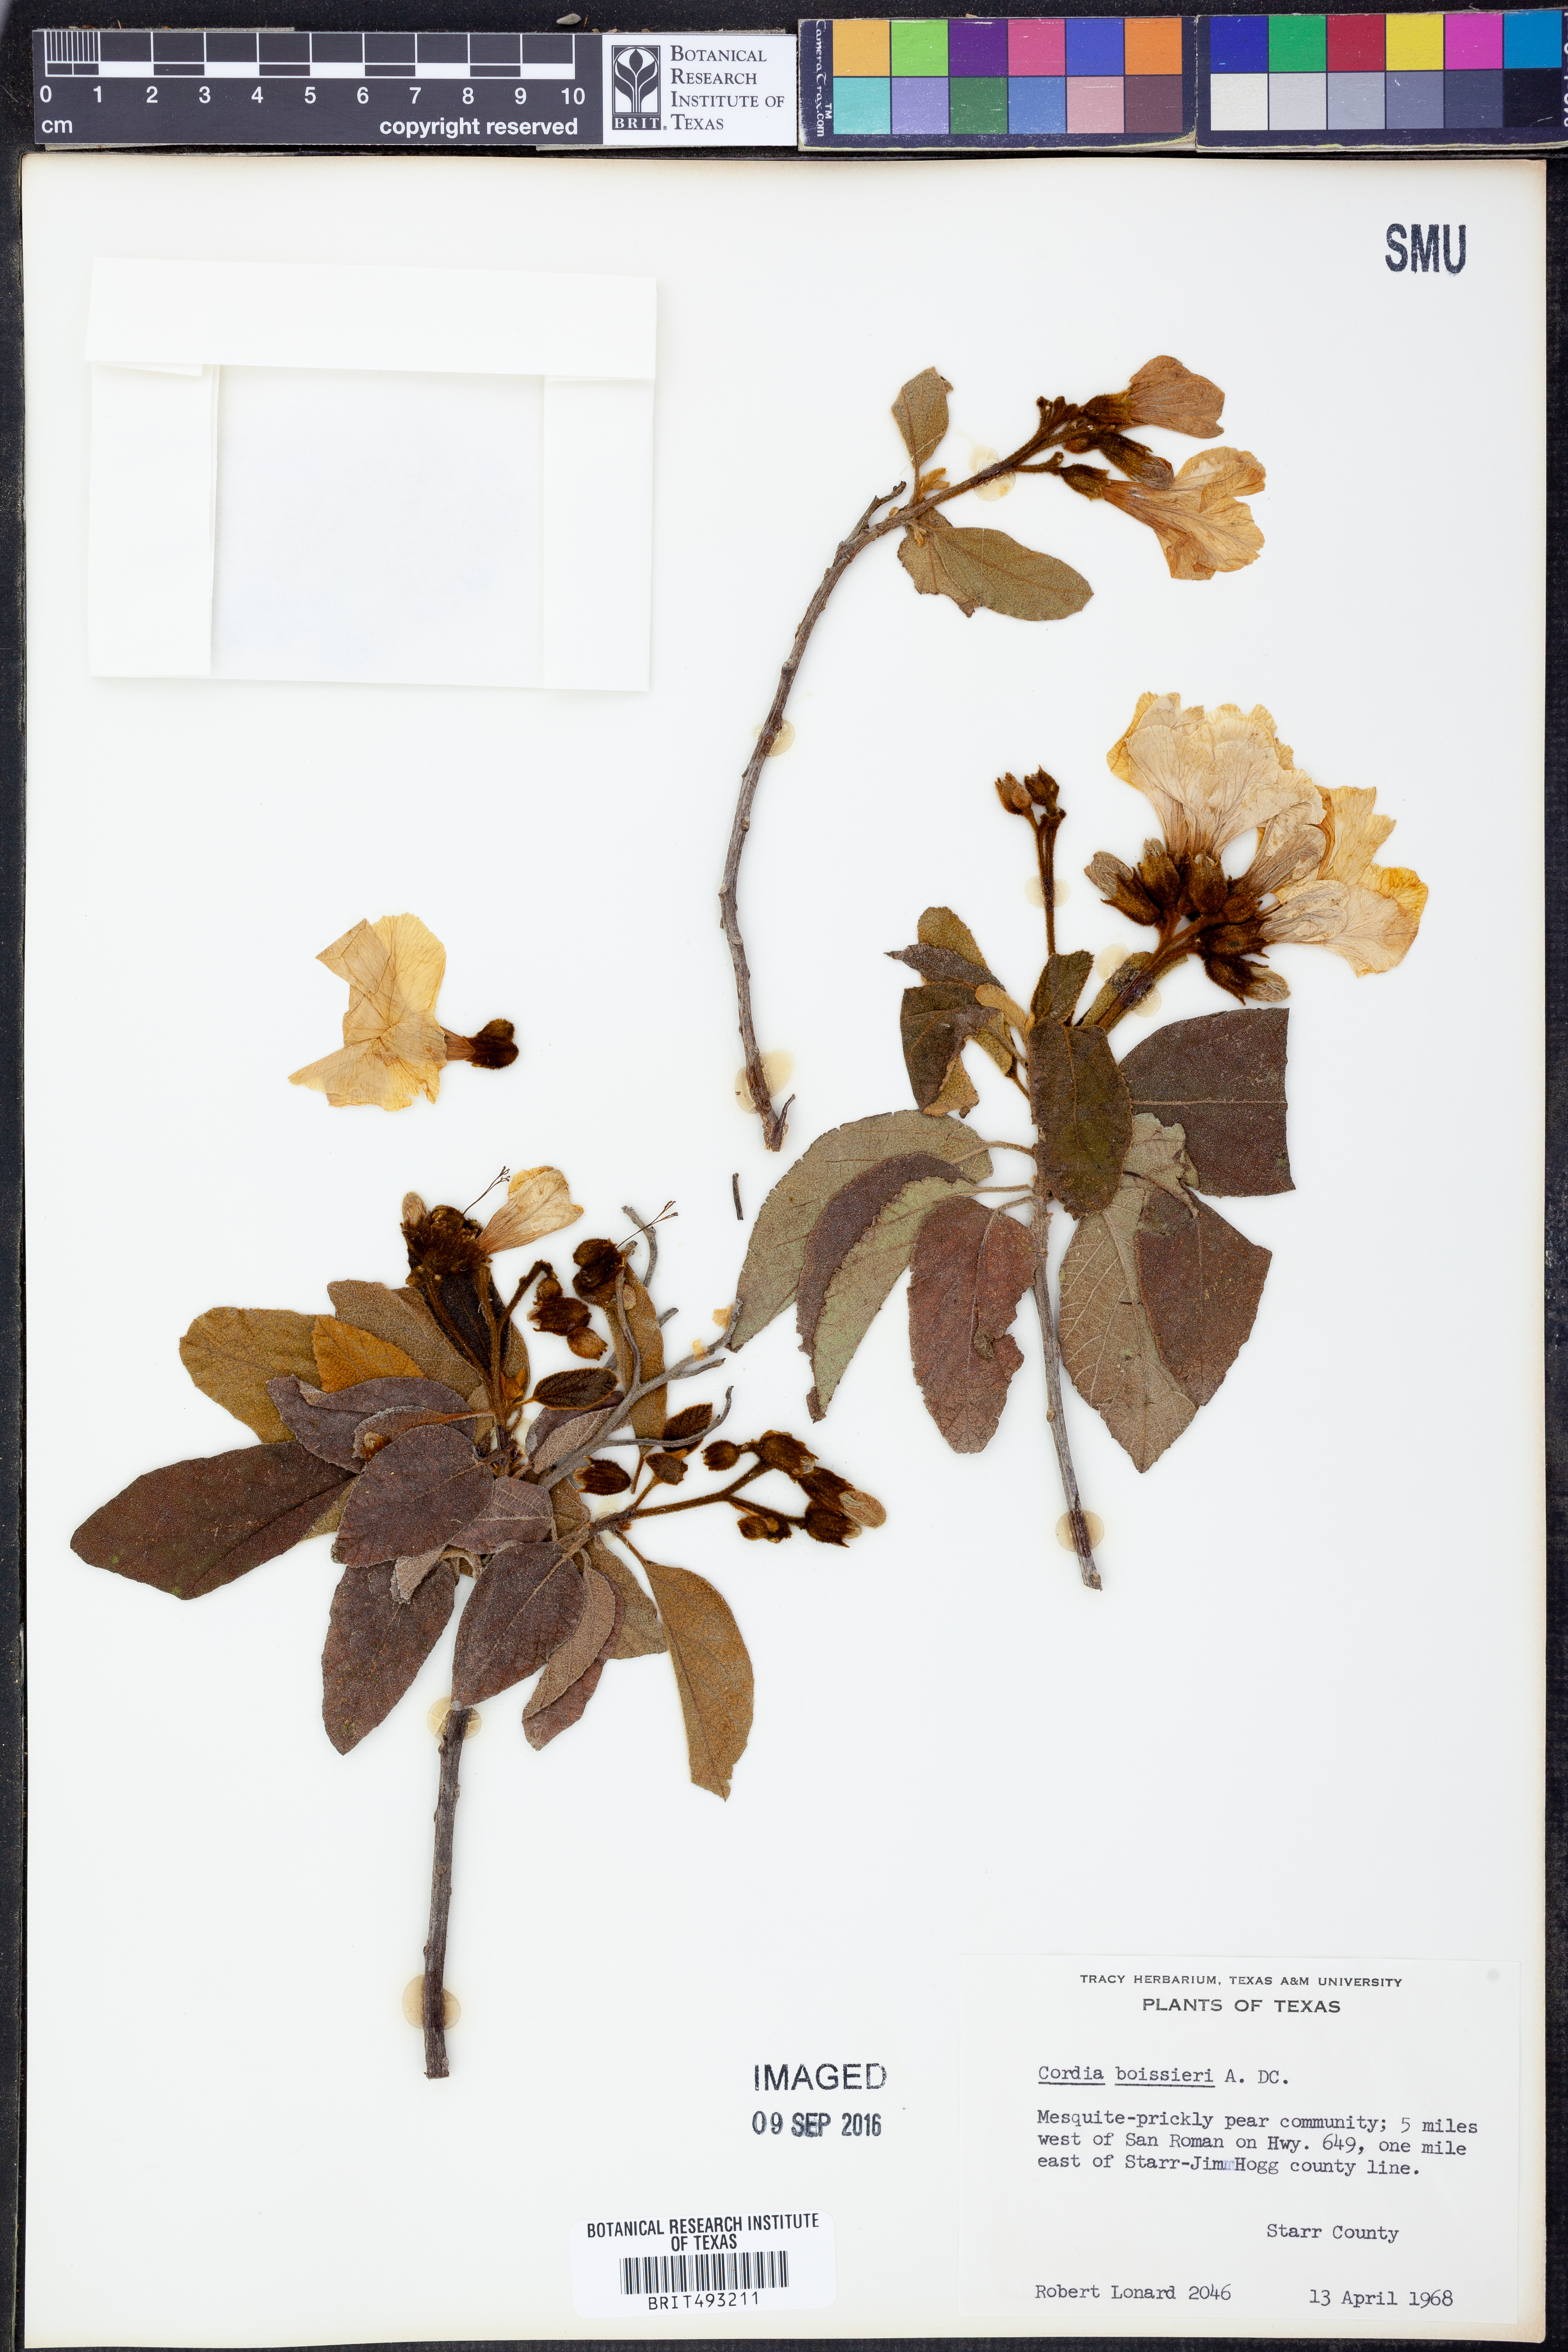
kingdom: Plantae
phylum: Tracheophyta
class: Magnoliopsida
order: Boraginales
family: Cordiaceae
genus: Cordia
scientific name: Cordia boissieri
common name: Mexican-olive
